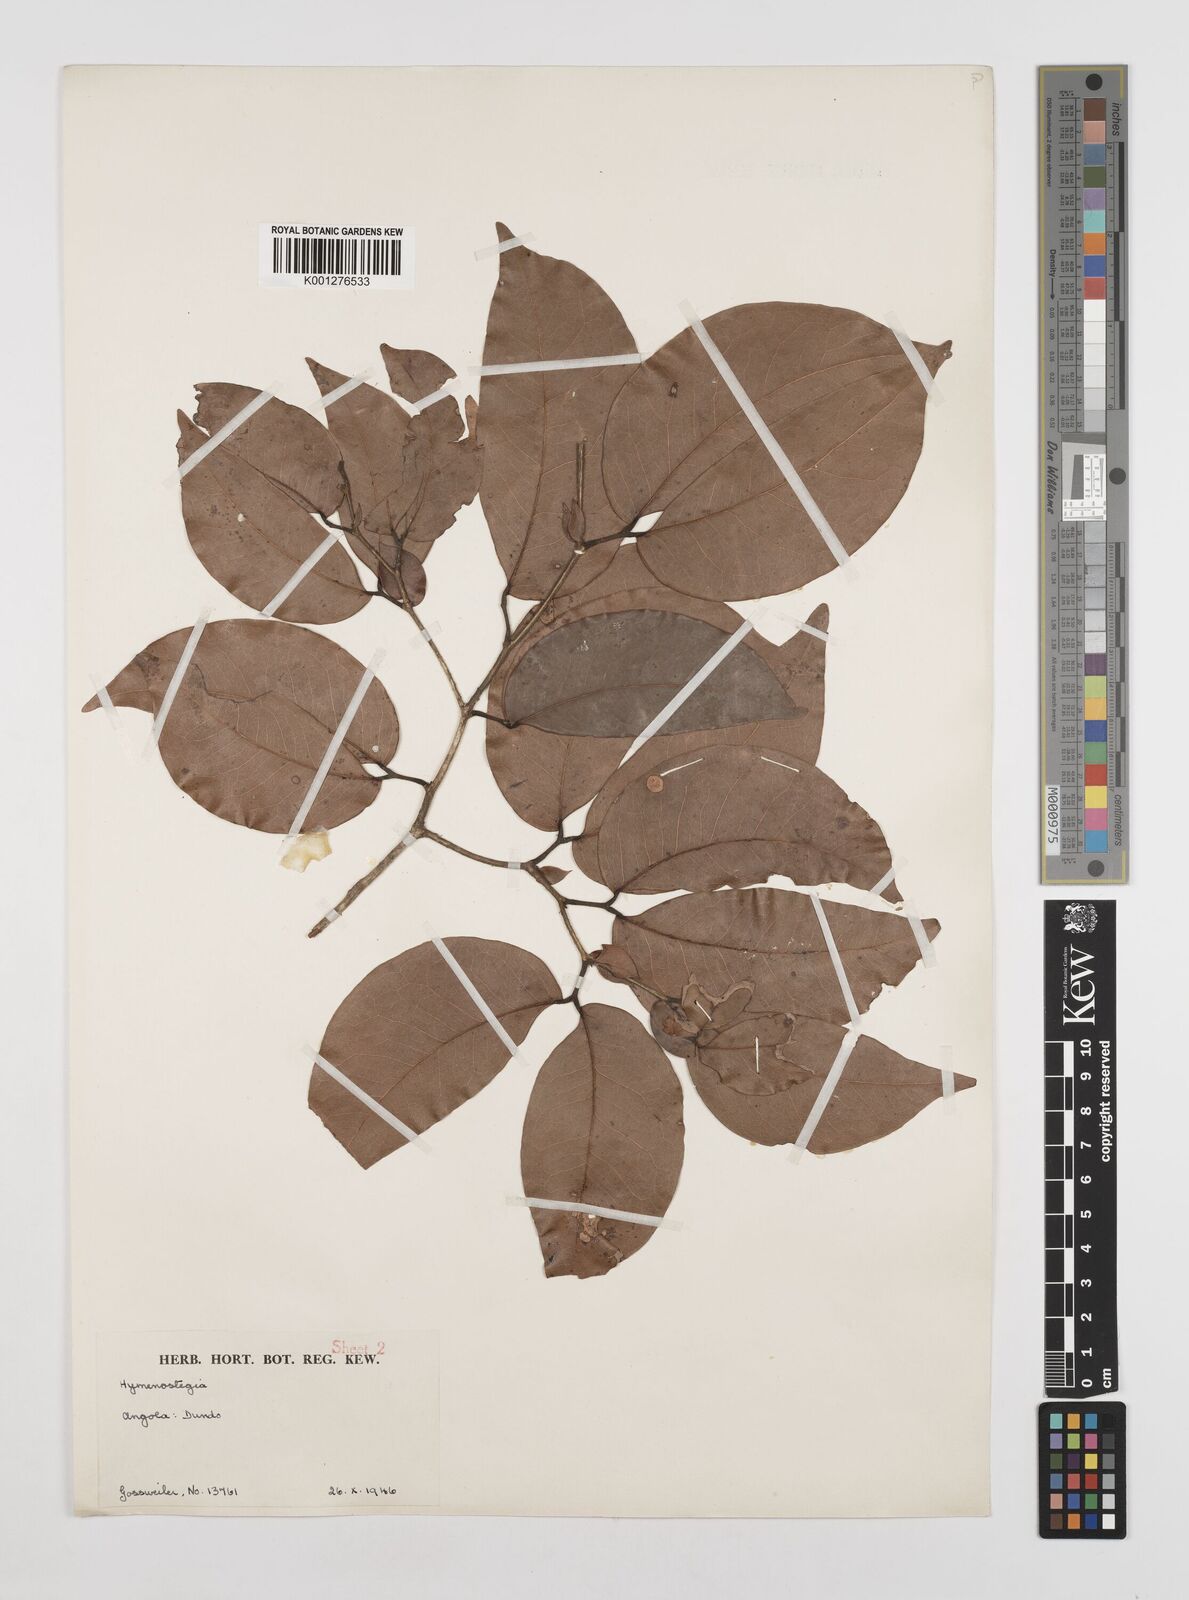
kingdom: Plantae
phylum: Tracheophyta
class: Magnoliopsida
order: Fabales
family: Fabaceae
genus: Cynometra
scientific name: Cynometra pedicellata
